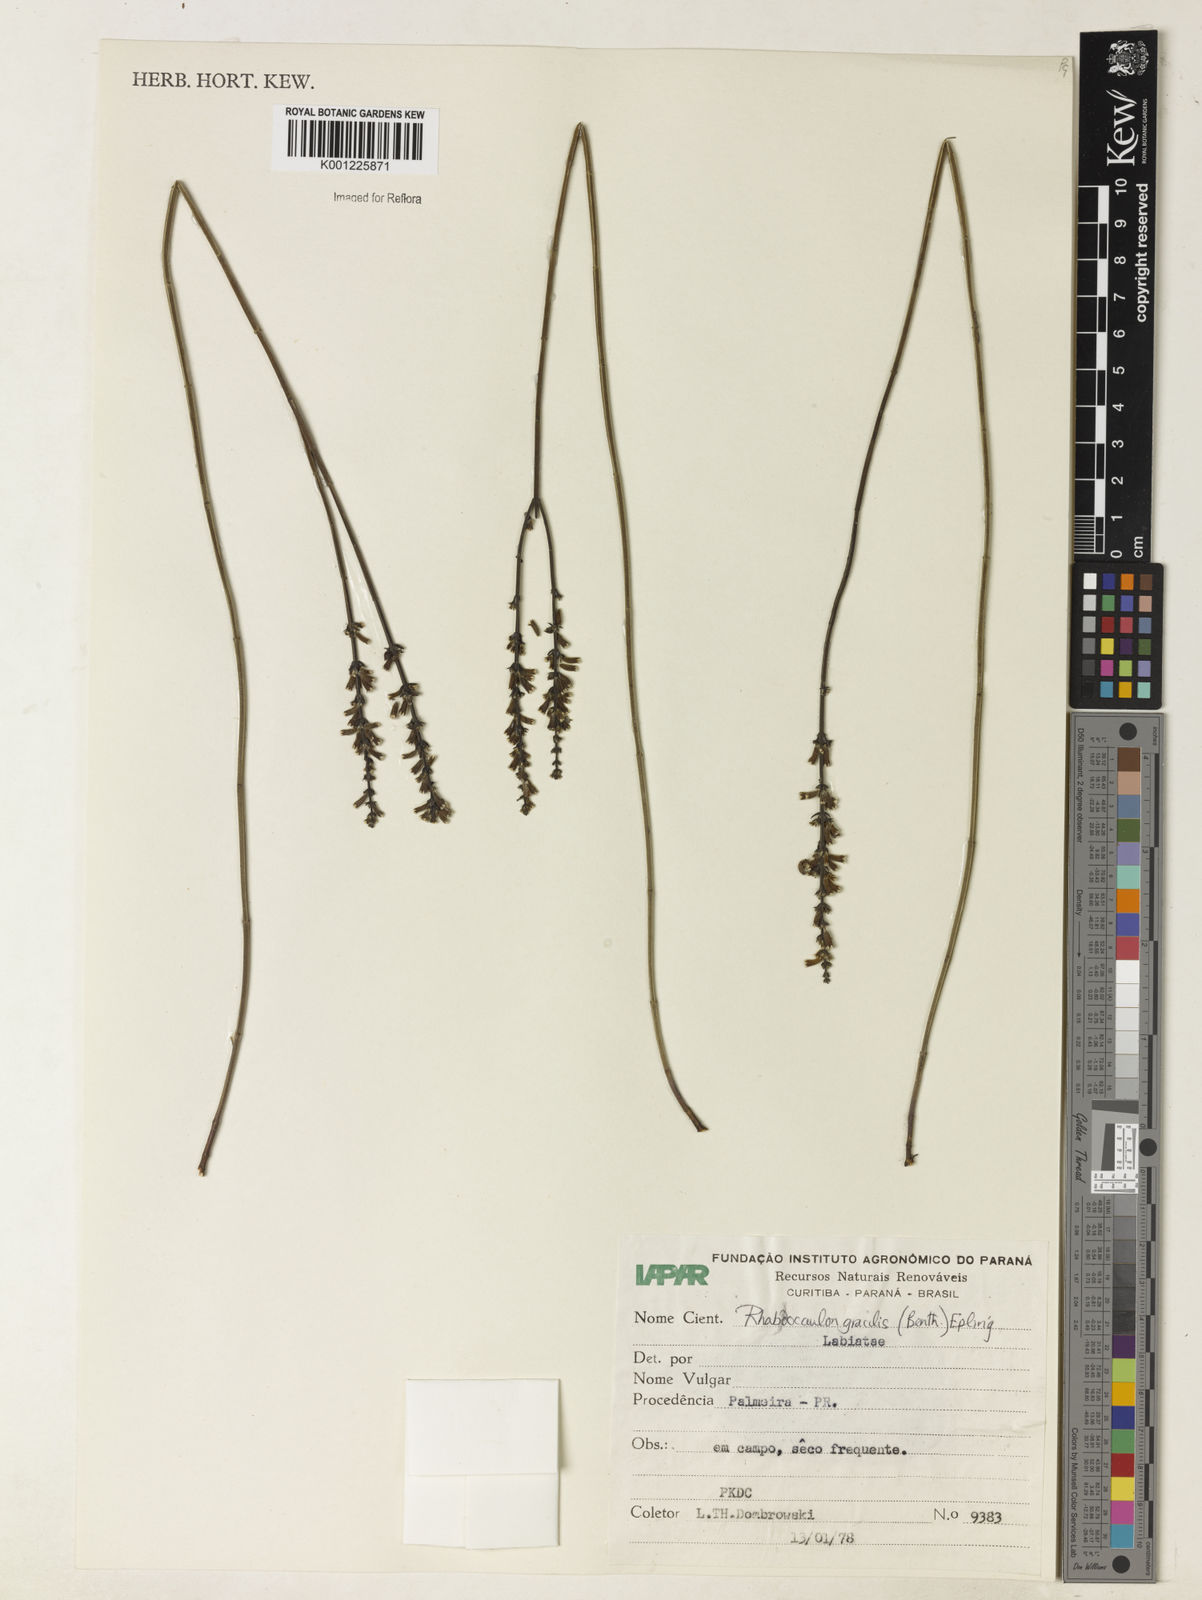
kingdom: Plantae
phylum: Tracheophyta
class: Magnoliopsida
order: Lamiales
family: Lamiaceae
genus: Rhabdocaulon
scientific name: Rhabdocaulon gracile
